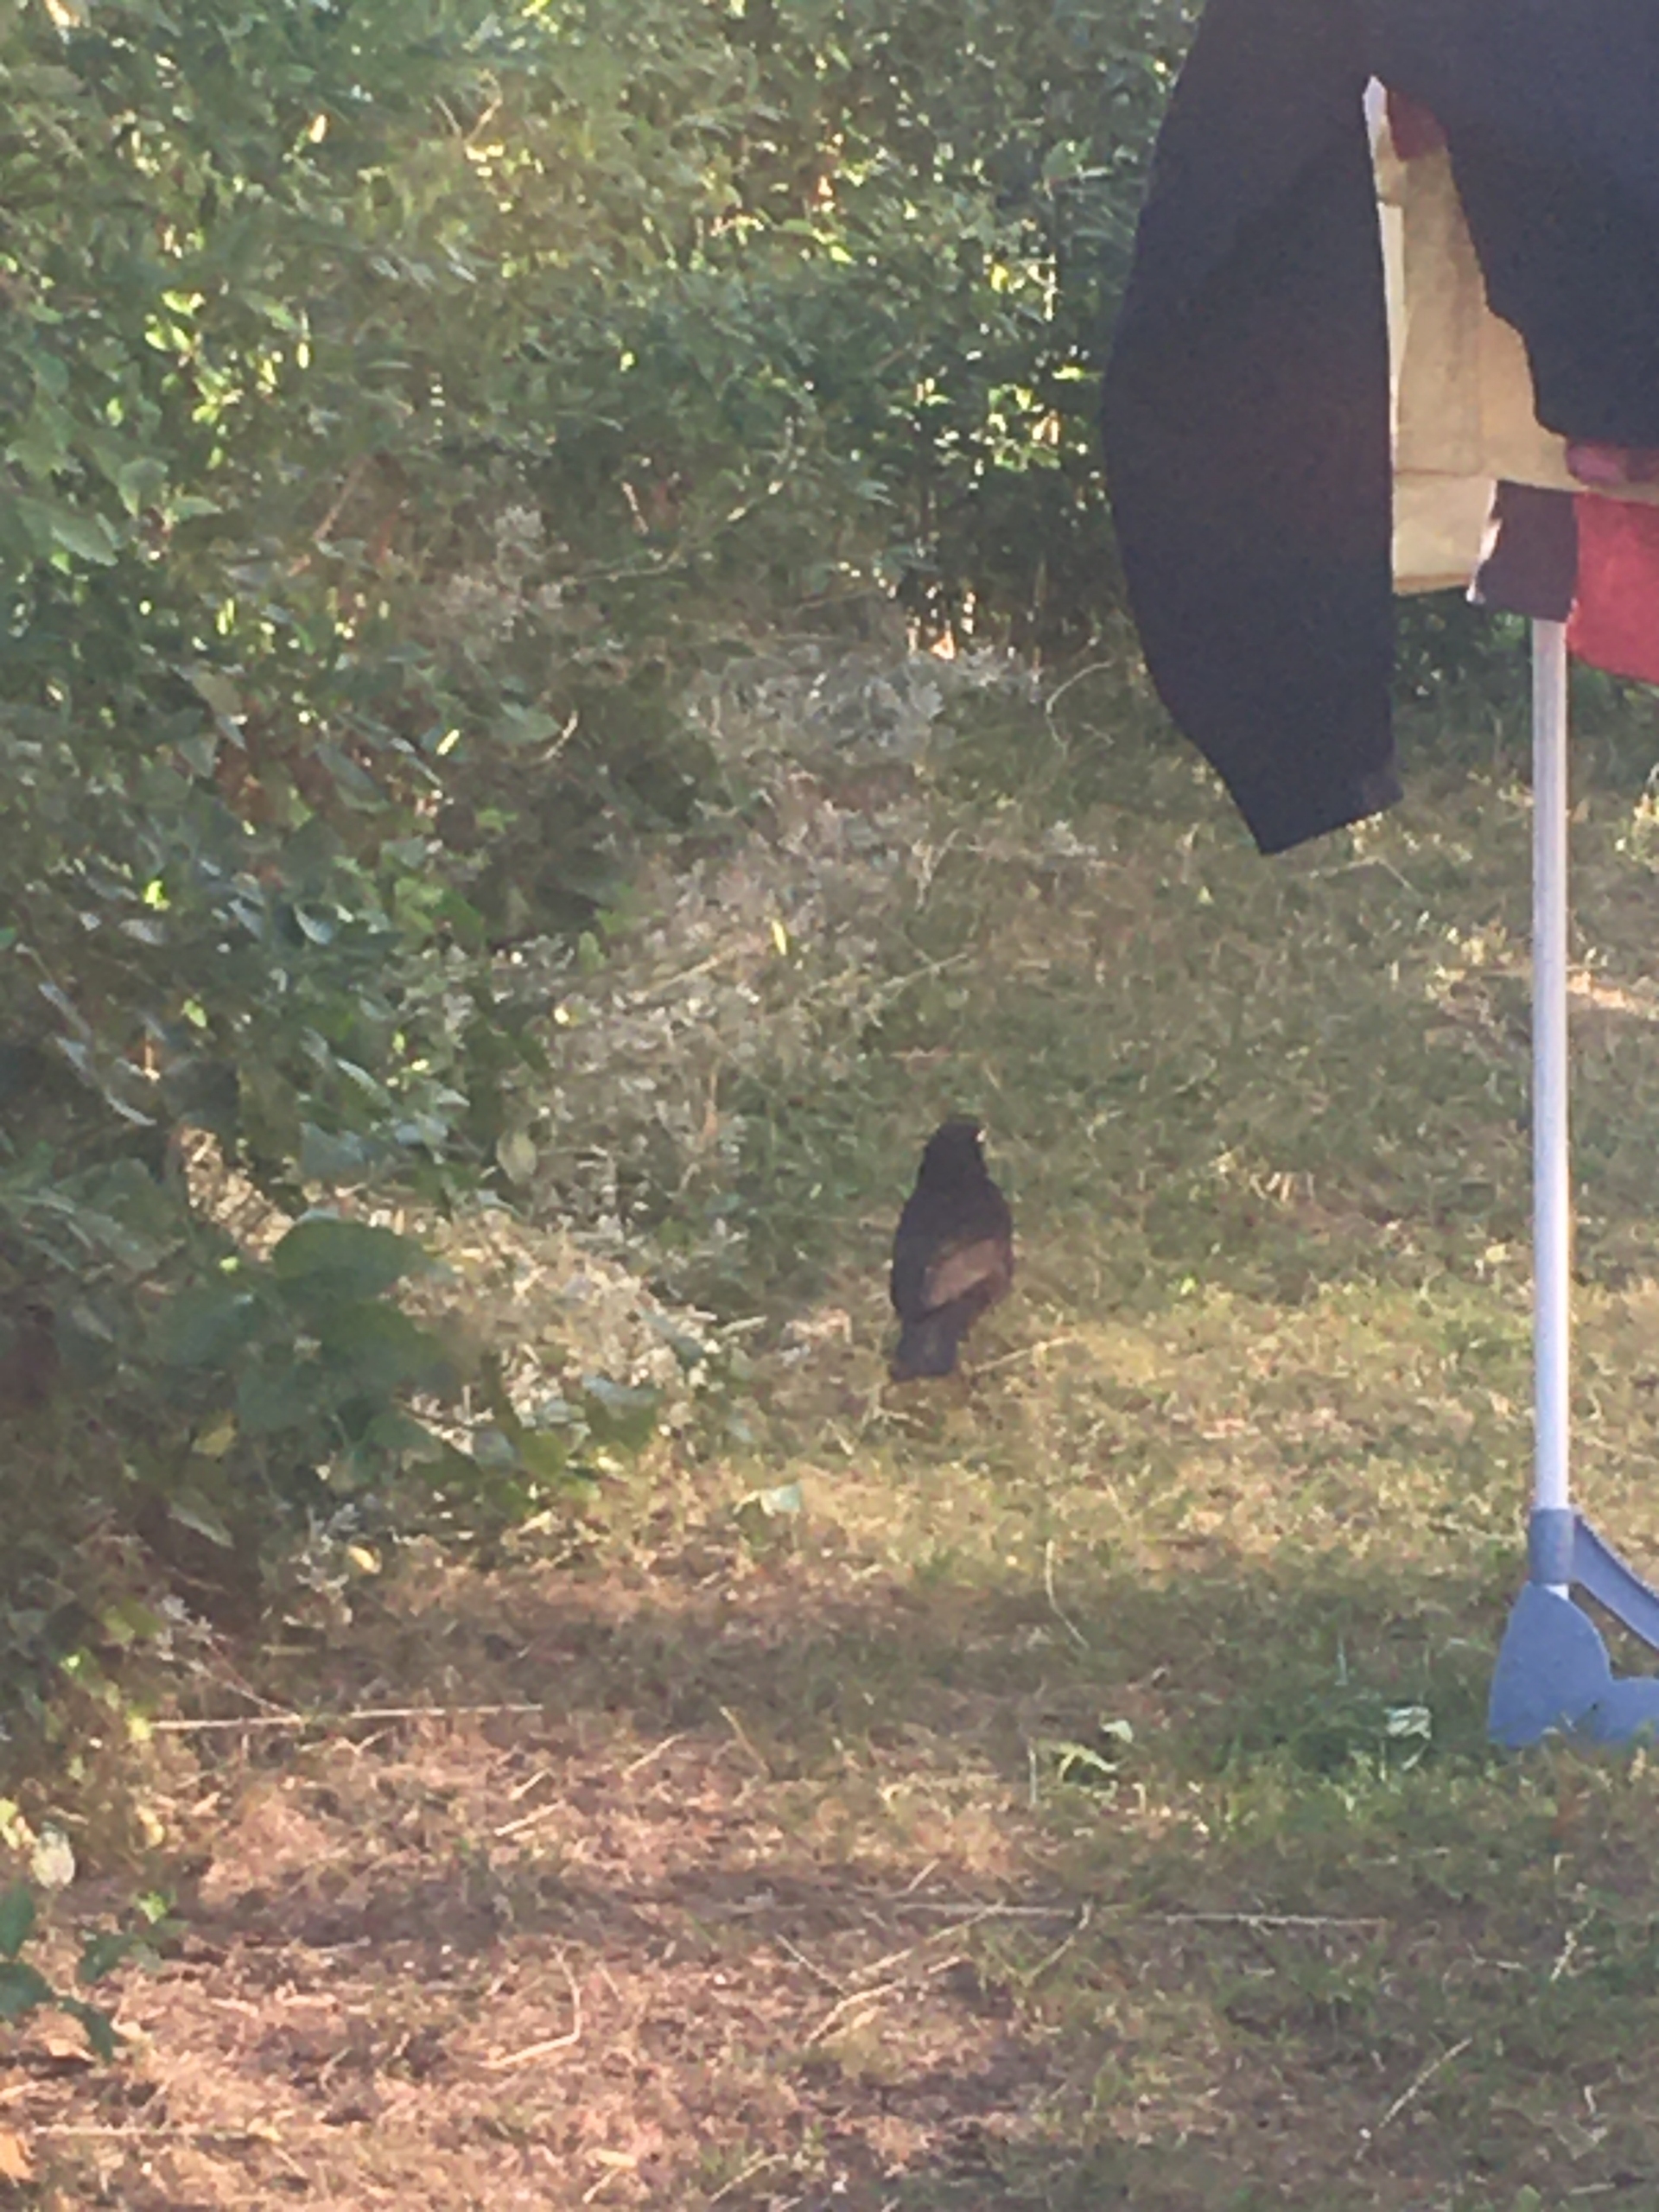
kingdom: Animalia
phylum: Chordata
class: Aves
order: Passeriformes
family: Turdidae
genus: Turdus
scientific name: Turdus merula
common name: Solsort
